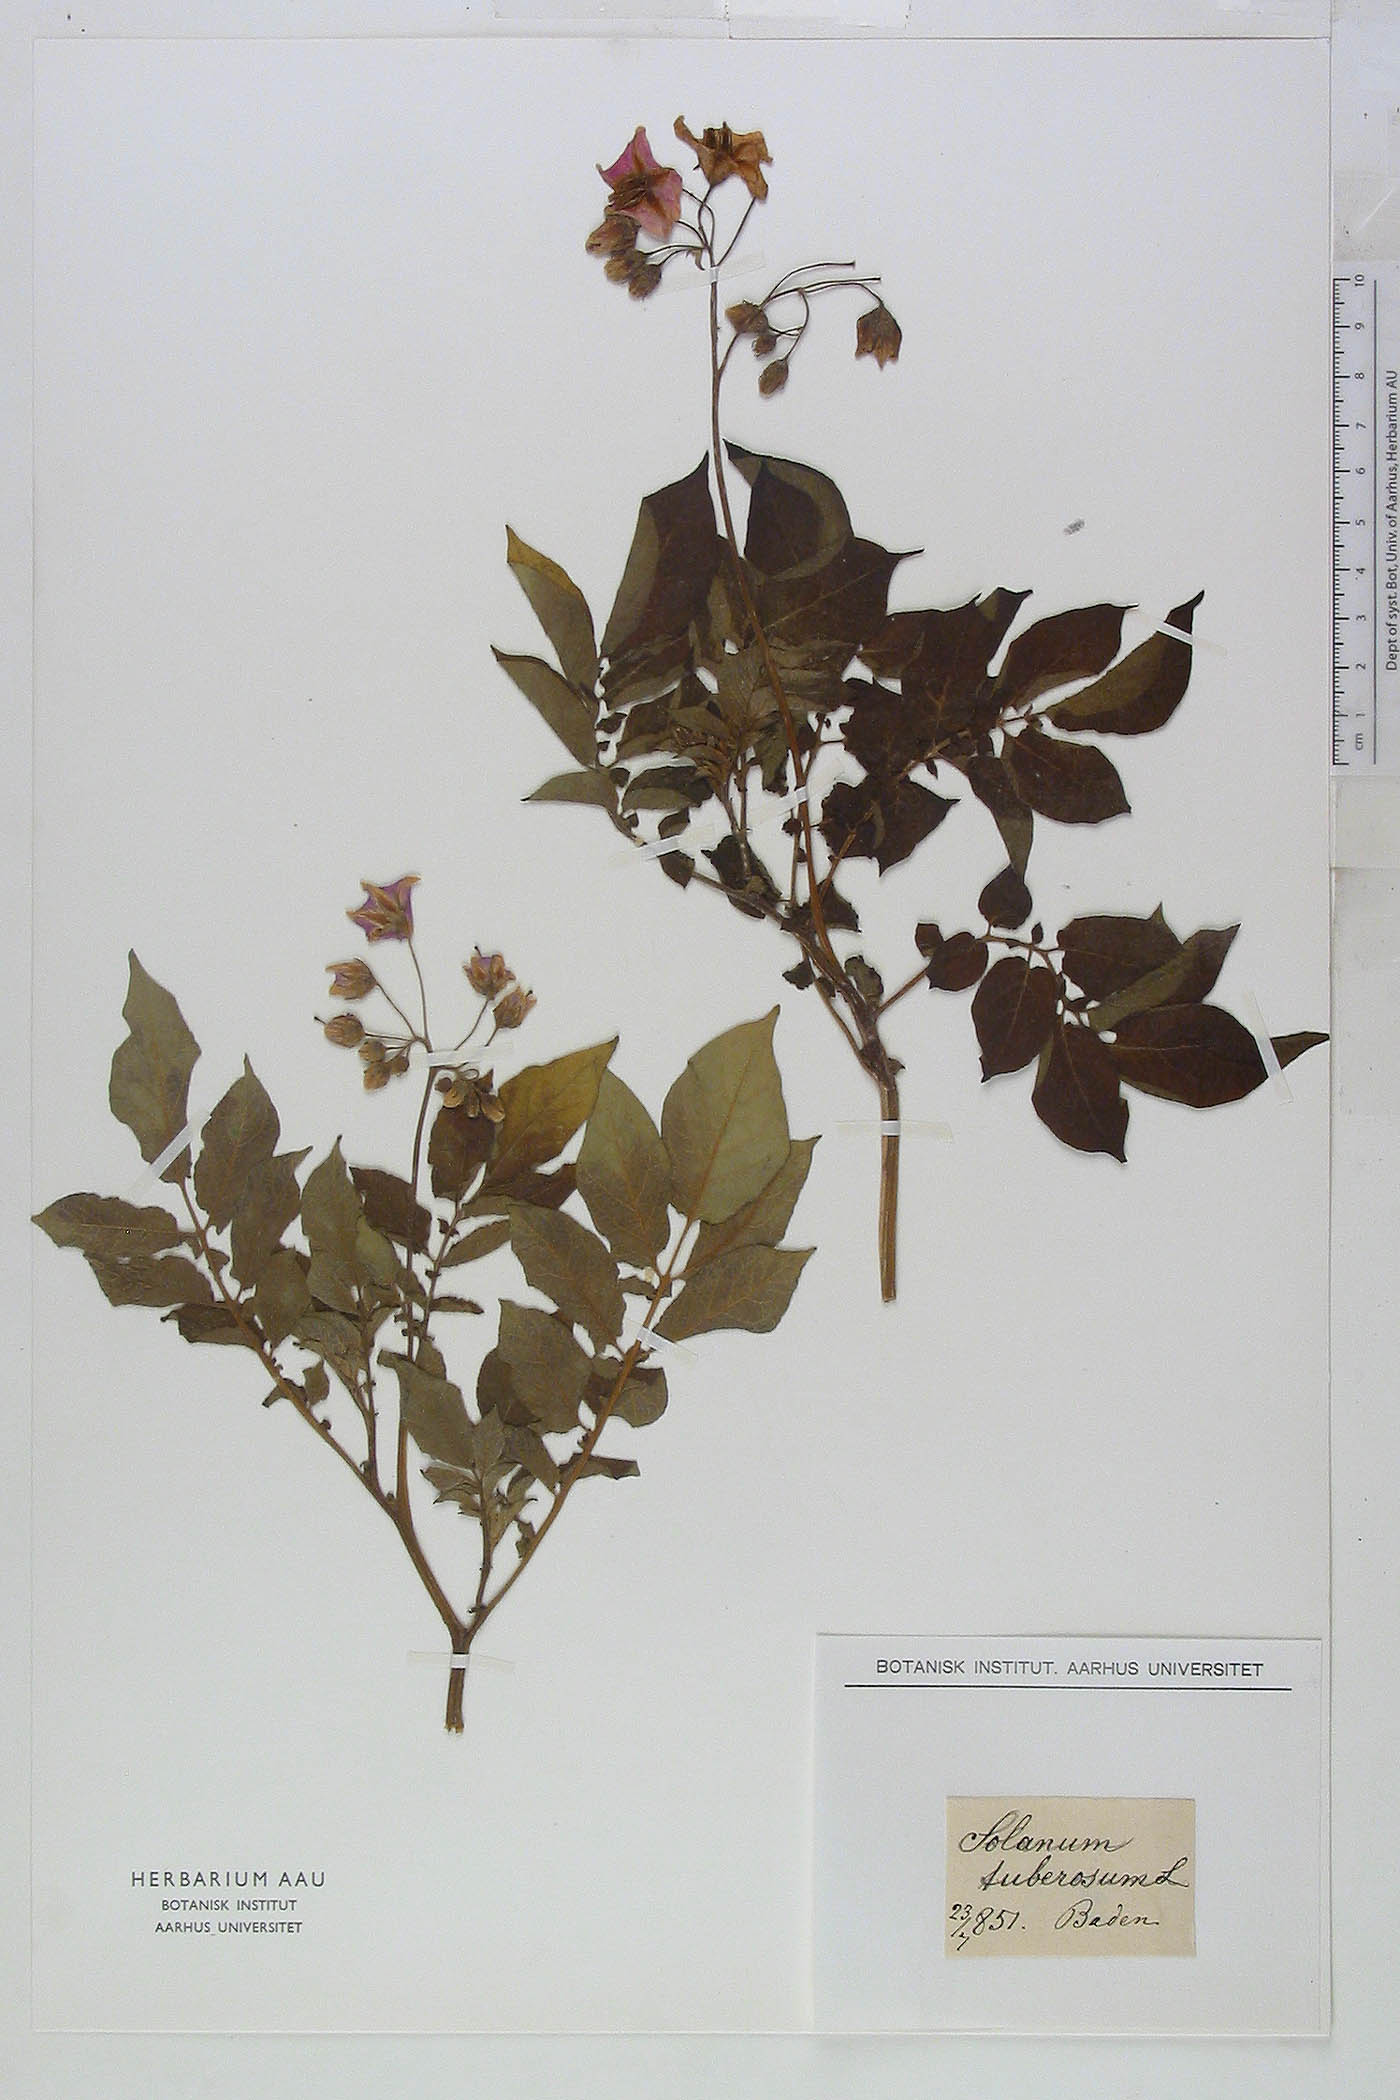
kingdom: Plantae
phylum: Tracheophyta
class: Magnoliopsida
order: Solanales
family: Solanaceae
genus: Solanum
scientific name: Solanum tuberosum
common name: Potato
